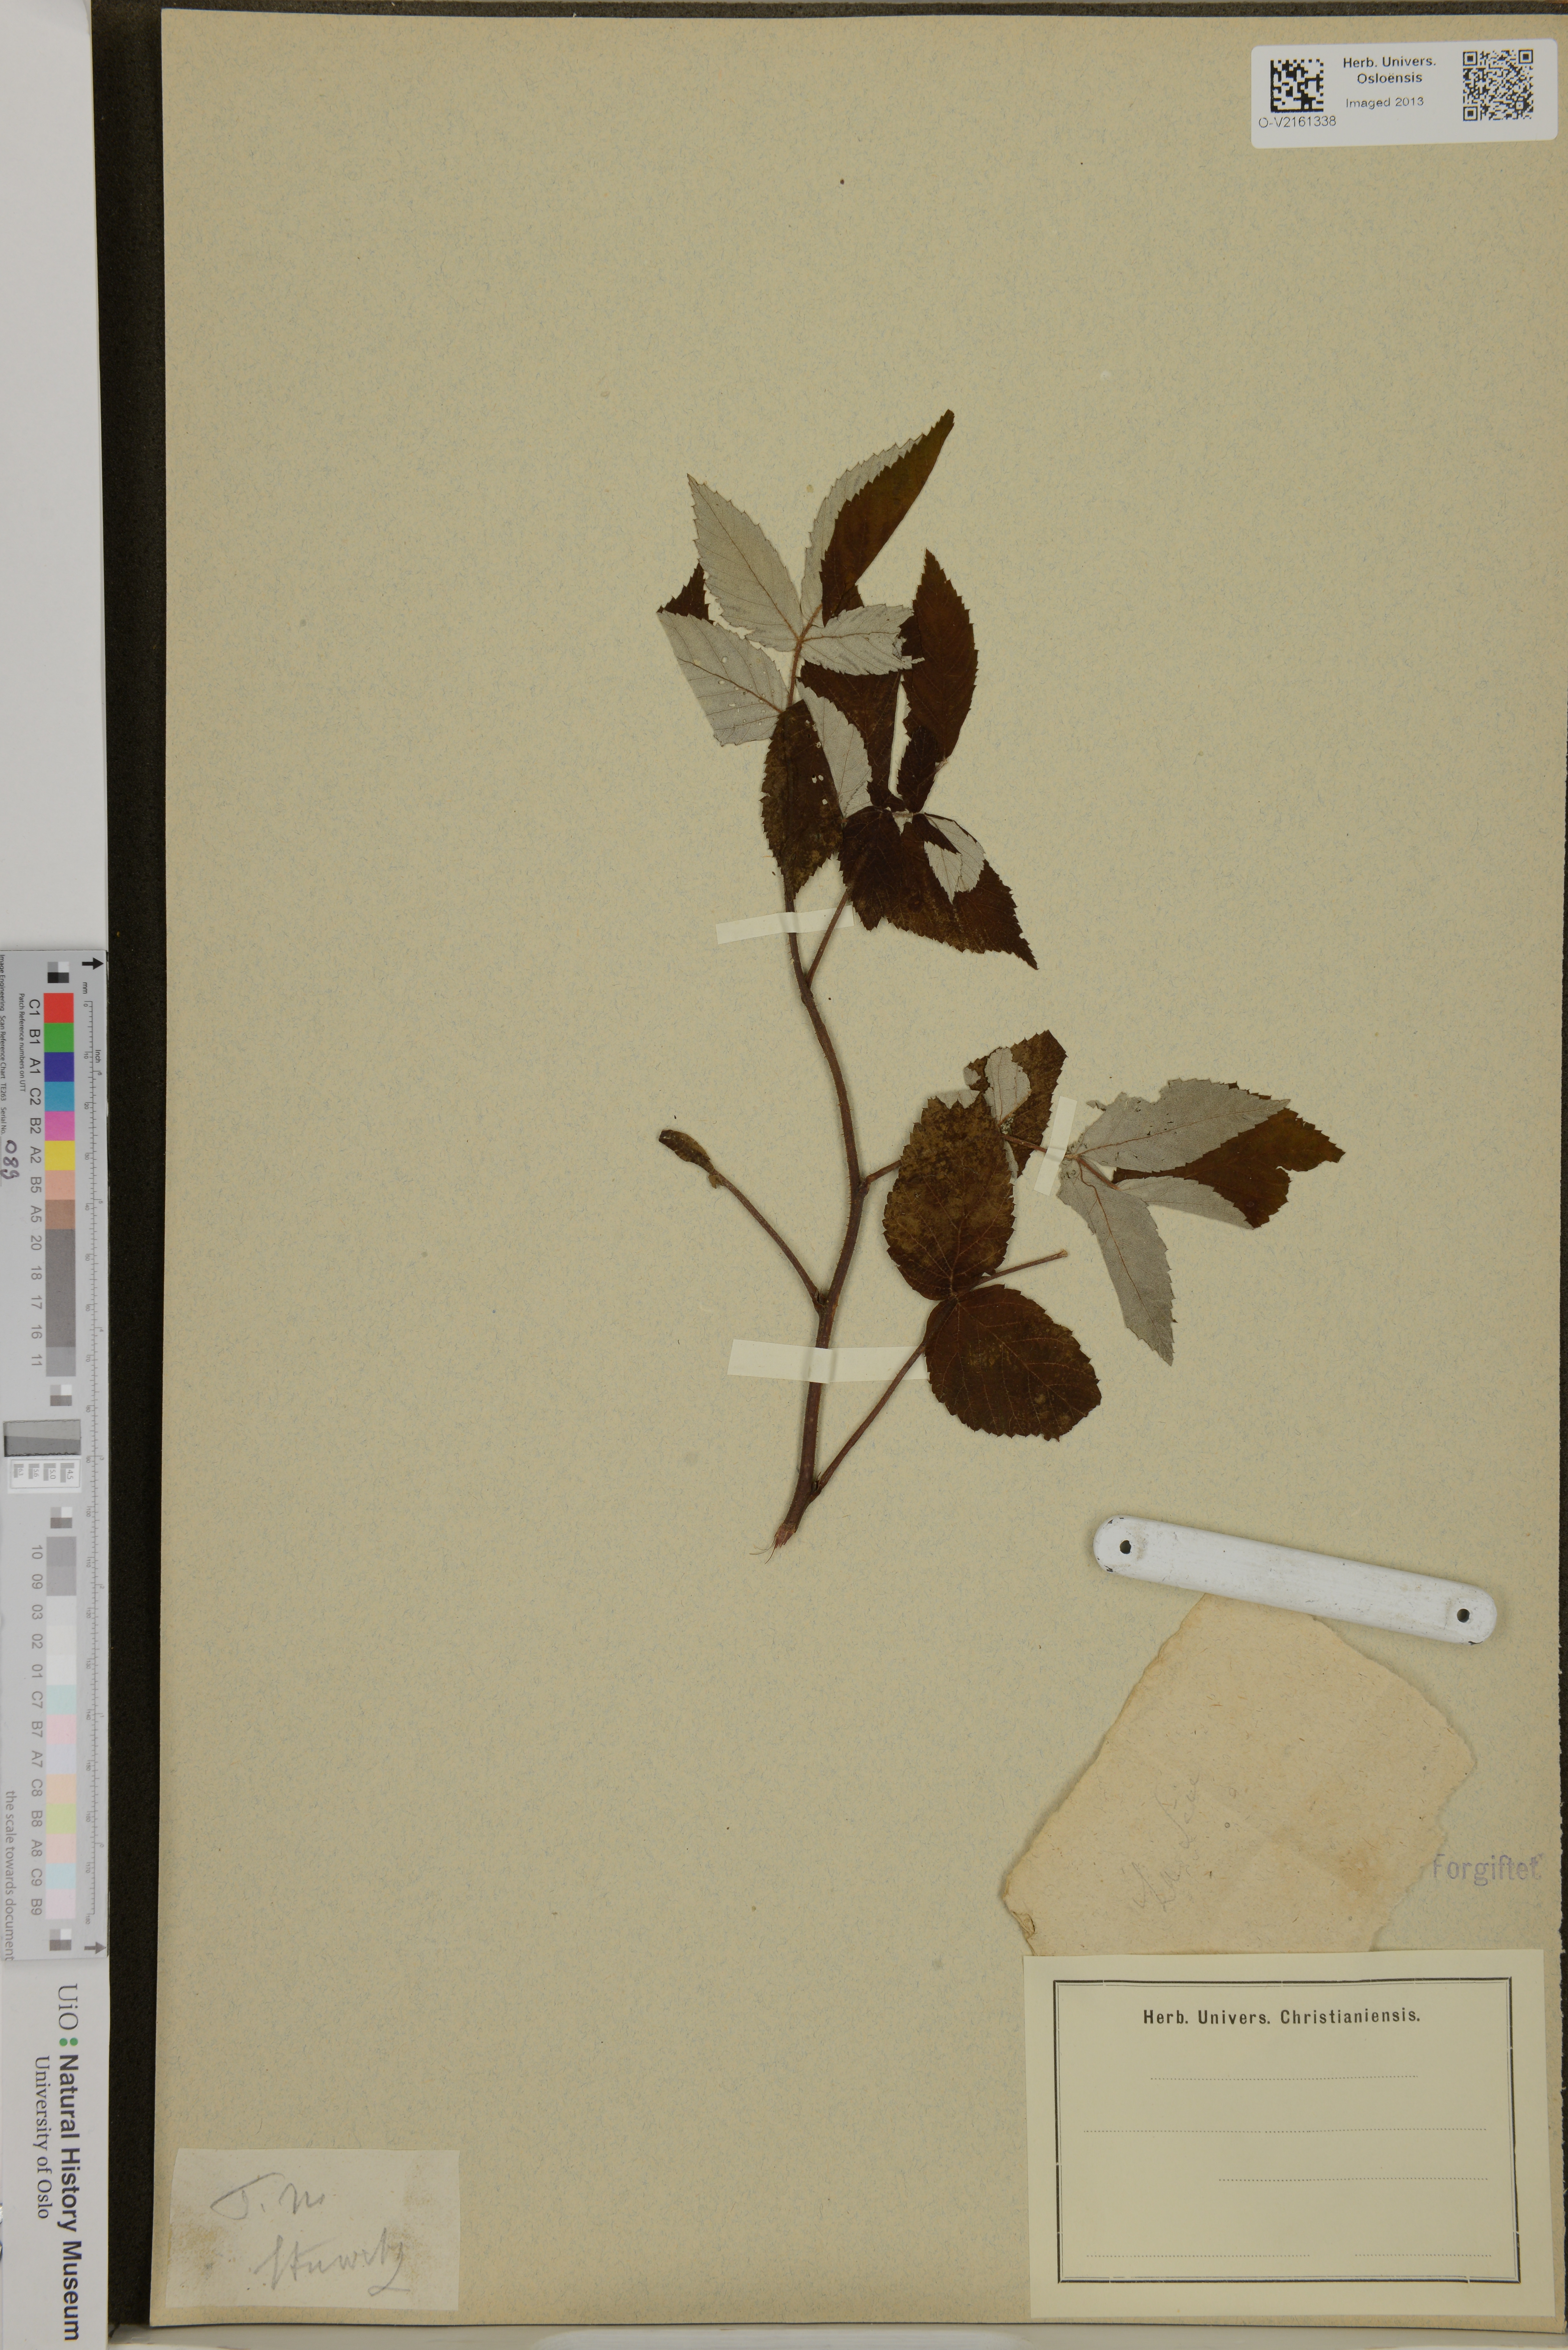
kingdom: Plantae
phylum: Tracheophyta
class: Magnoliopsida
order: Rosales
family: Rosaceae
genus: Rubus
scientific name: Rubus
